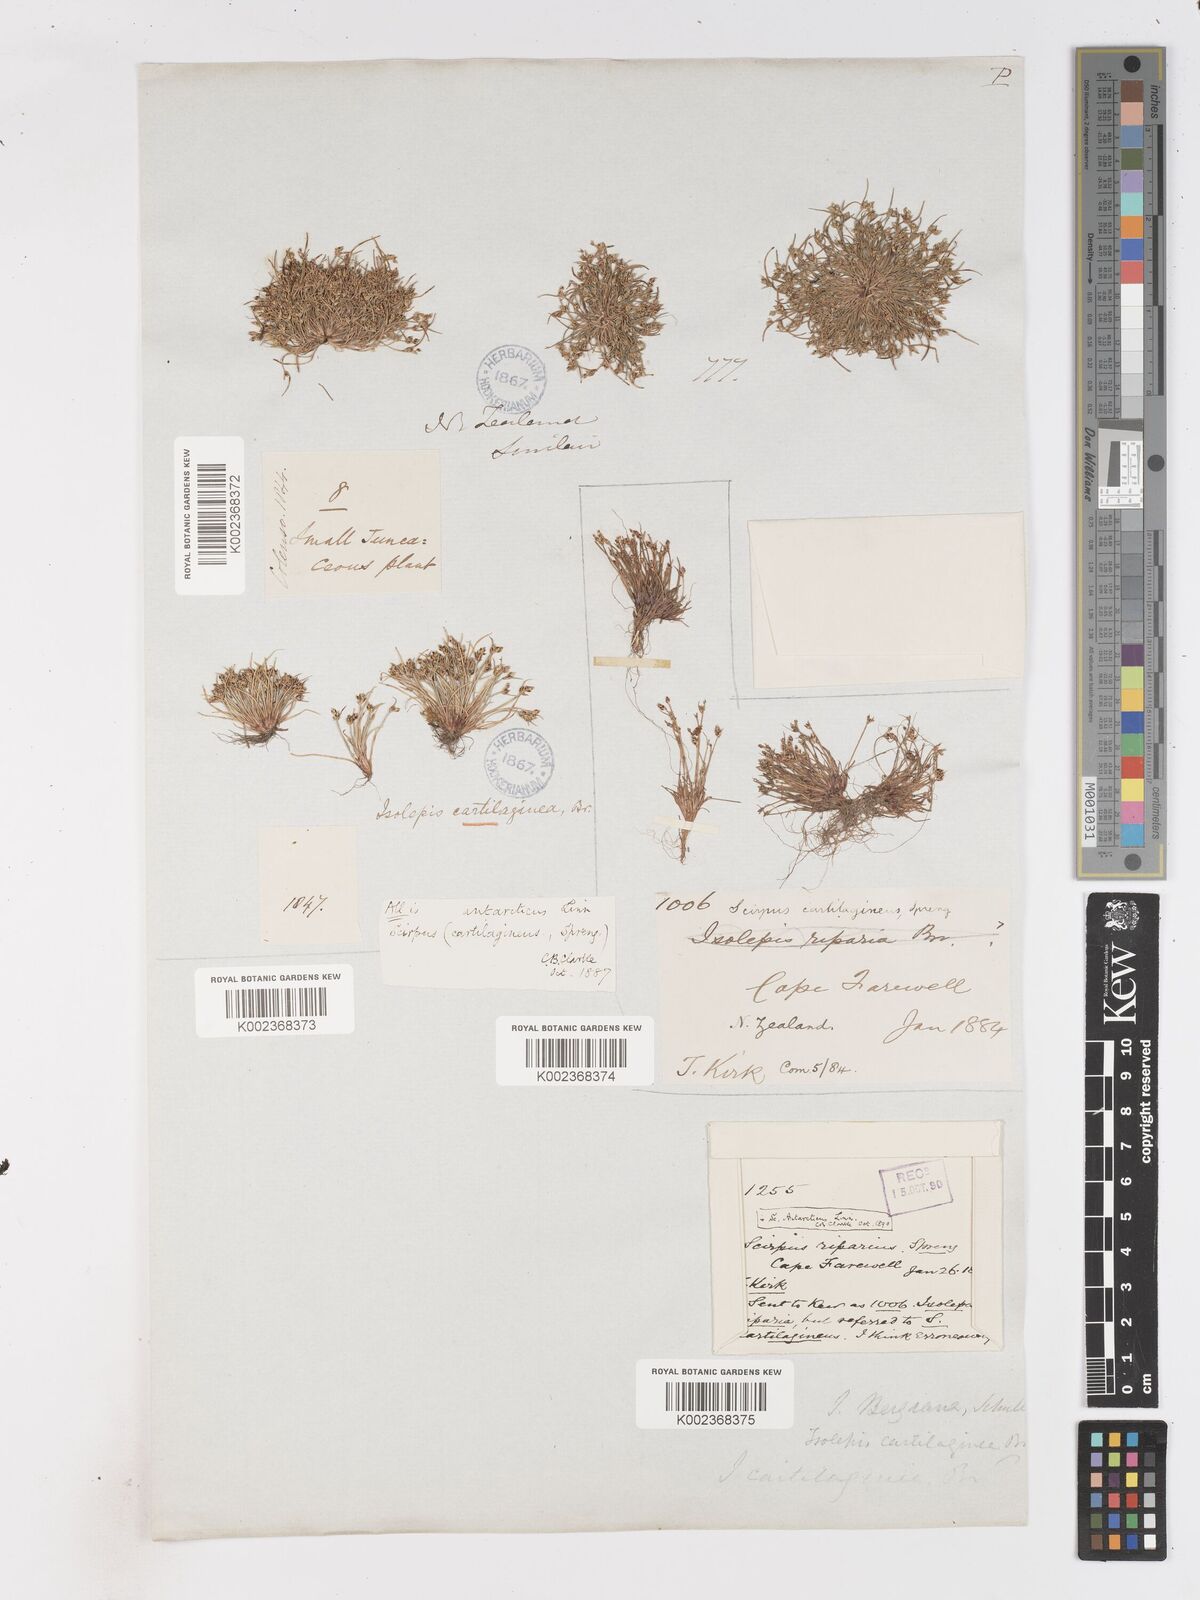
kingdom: Plantae
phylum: Tracheophyta
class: Liliopsida
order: Poales
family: Cyperaceae
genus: Isolepis
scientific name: Isolepis marginata
